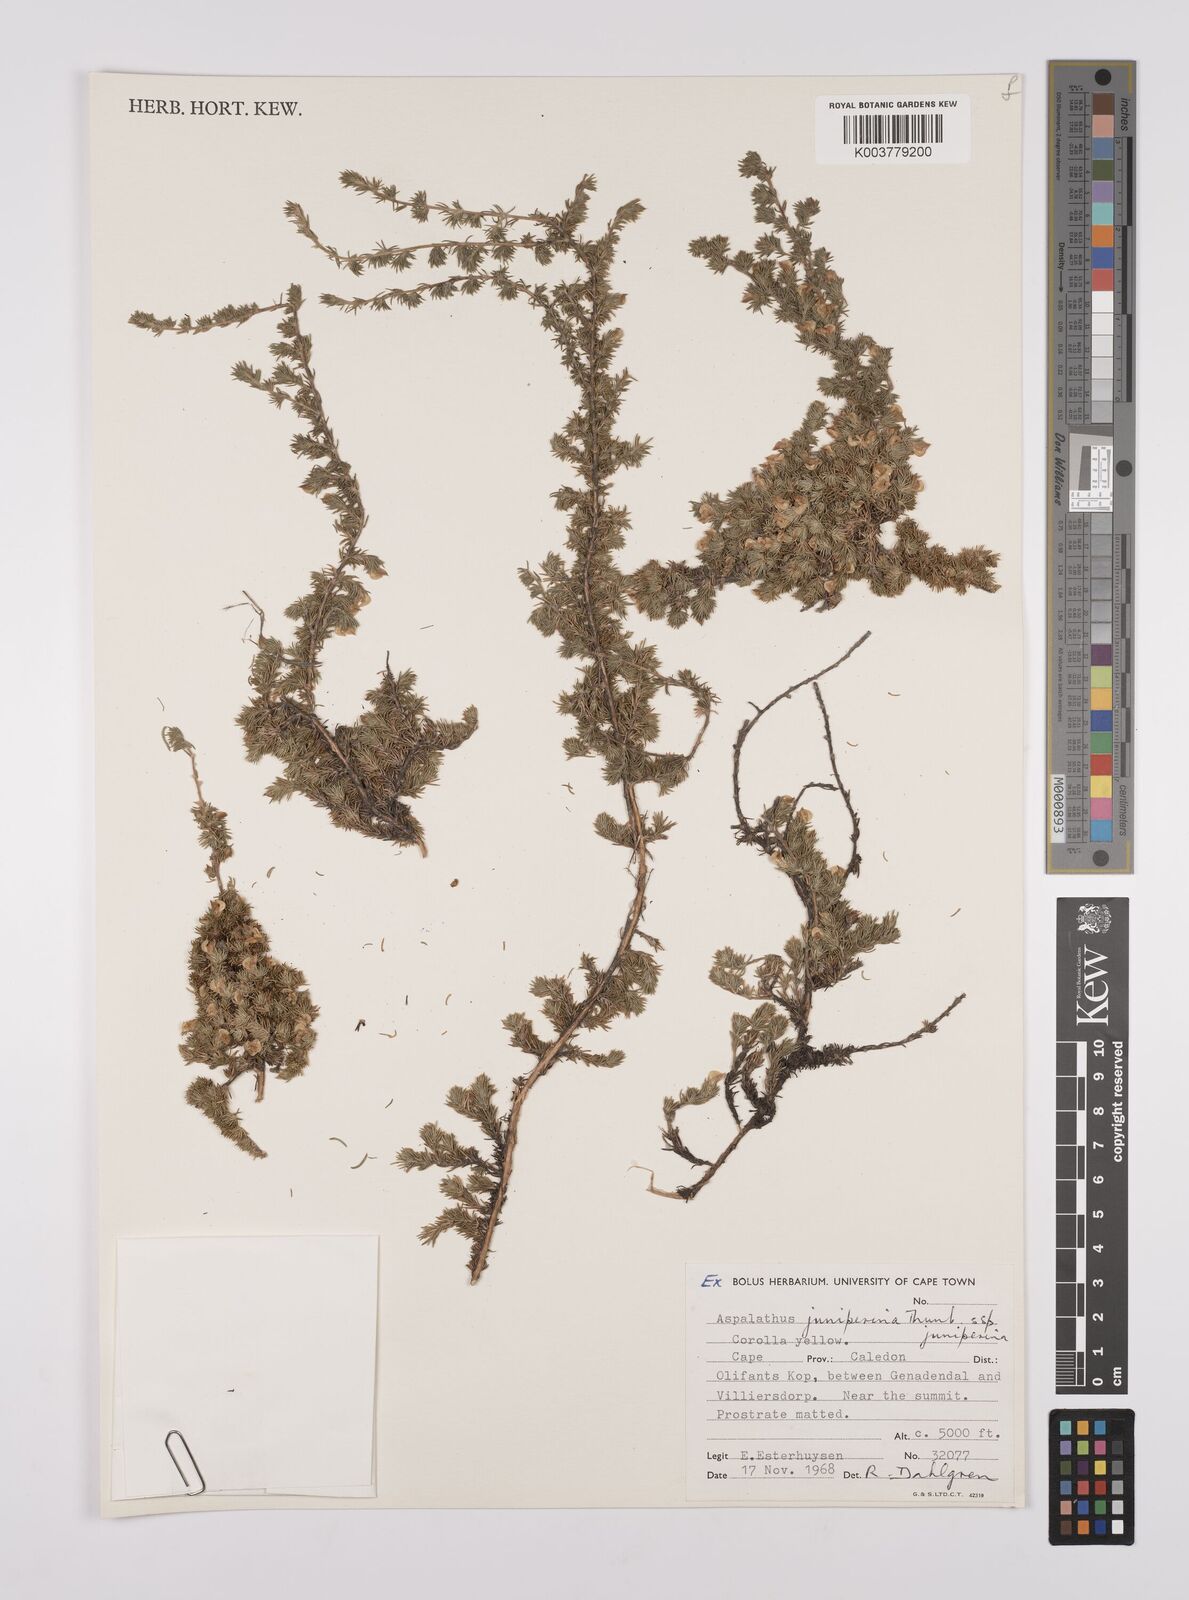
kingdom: Plantae
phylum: Tracheophyta
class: Magnoliopsida
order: Fabales
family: Fabaceae
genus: Aspalathus
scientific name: Aspalathus juniperina
